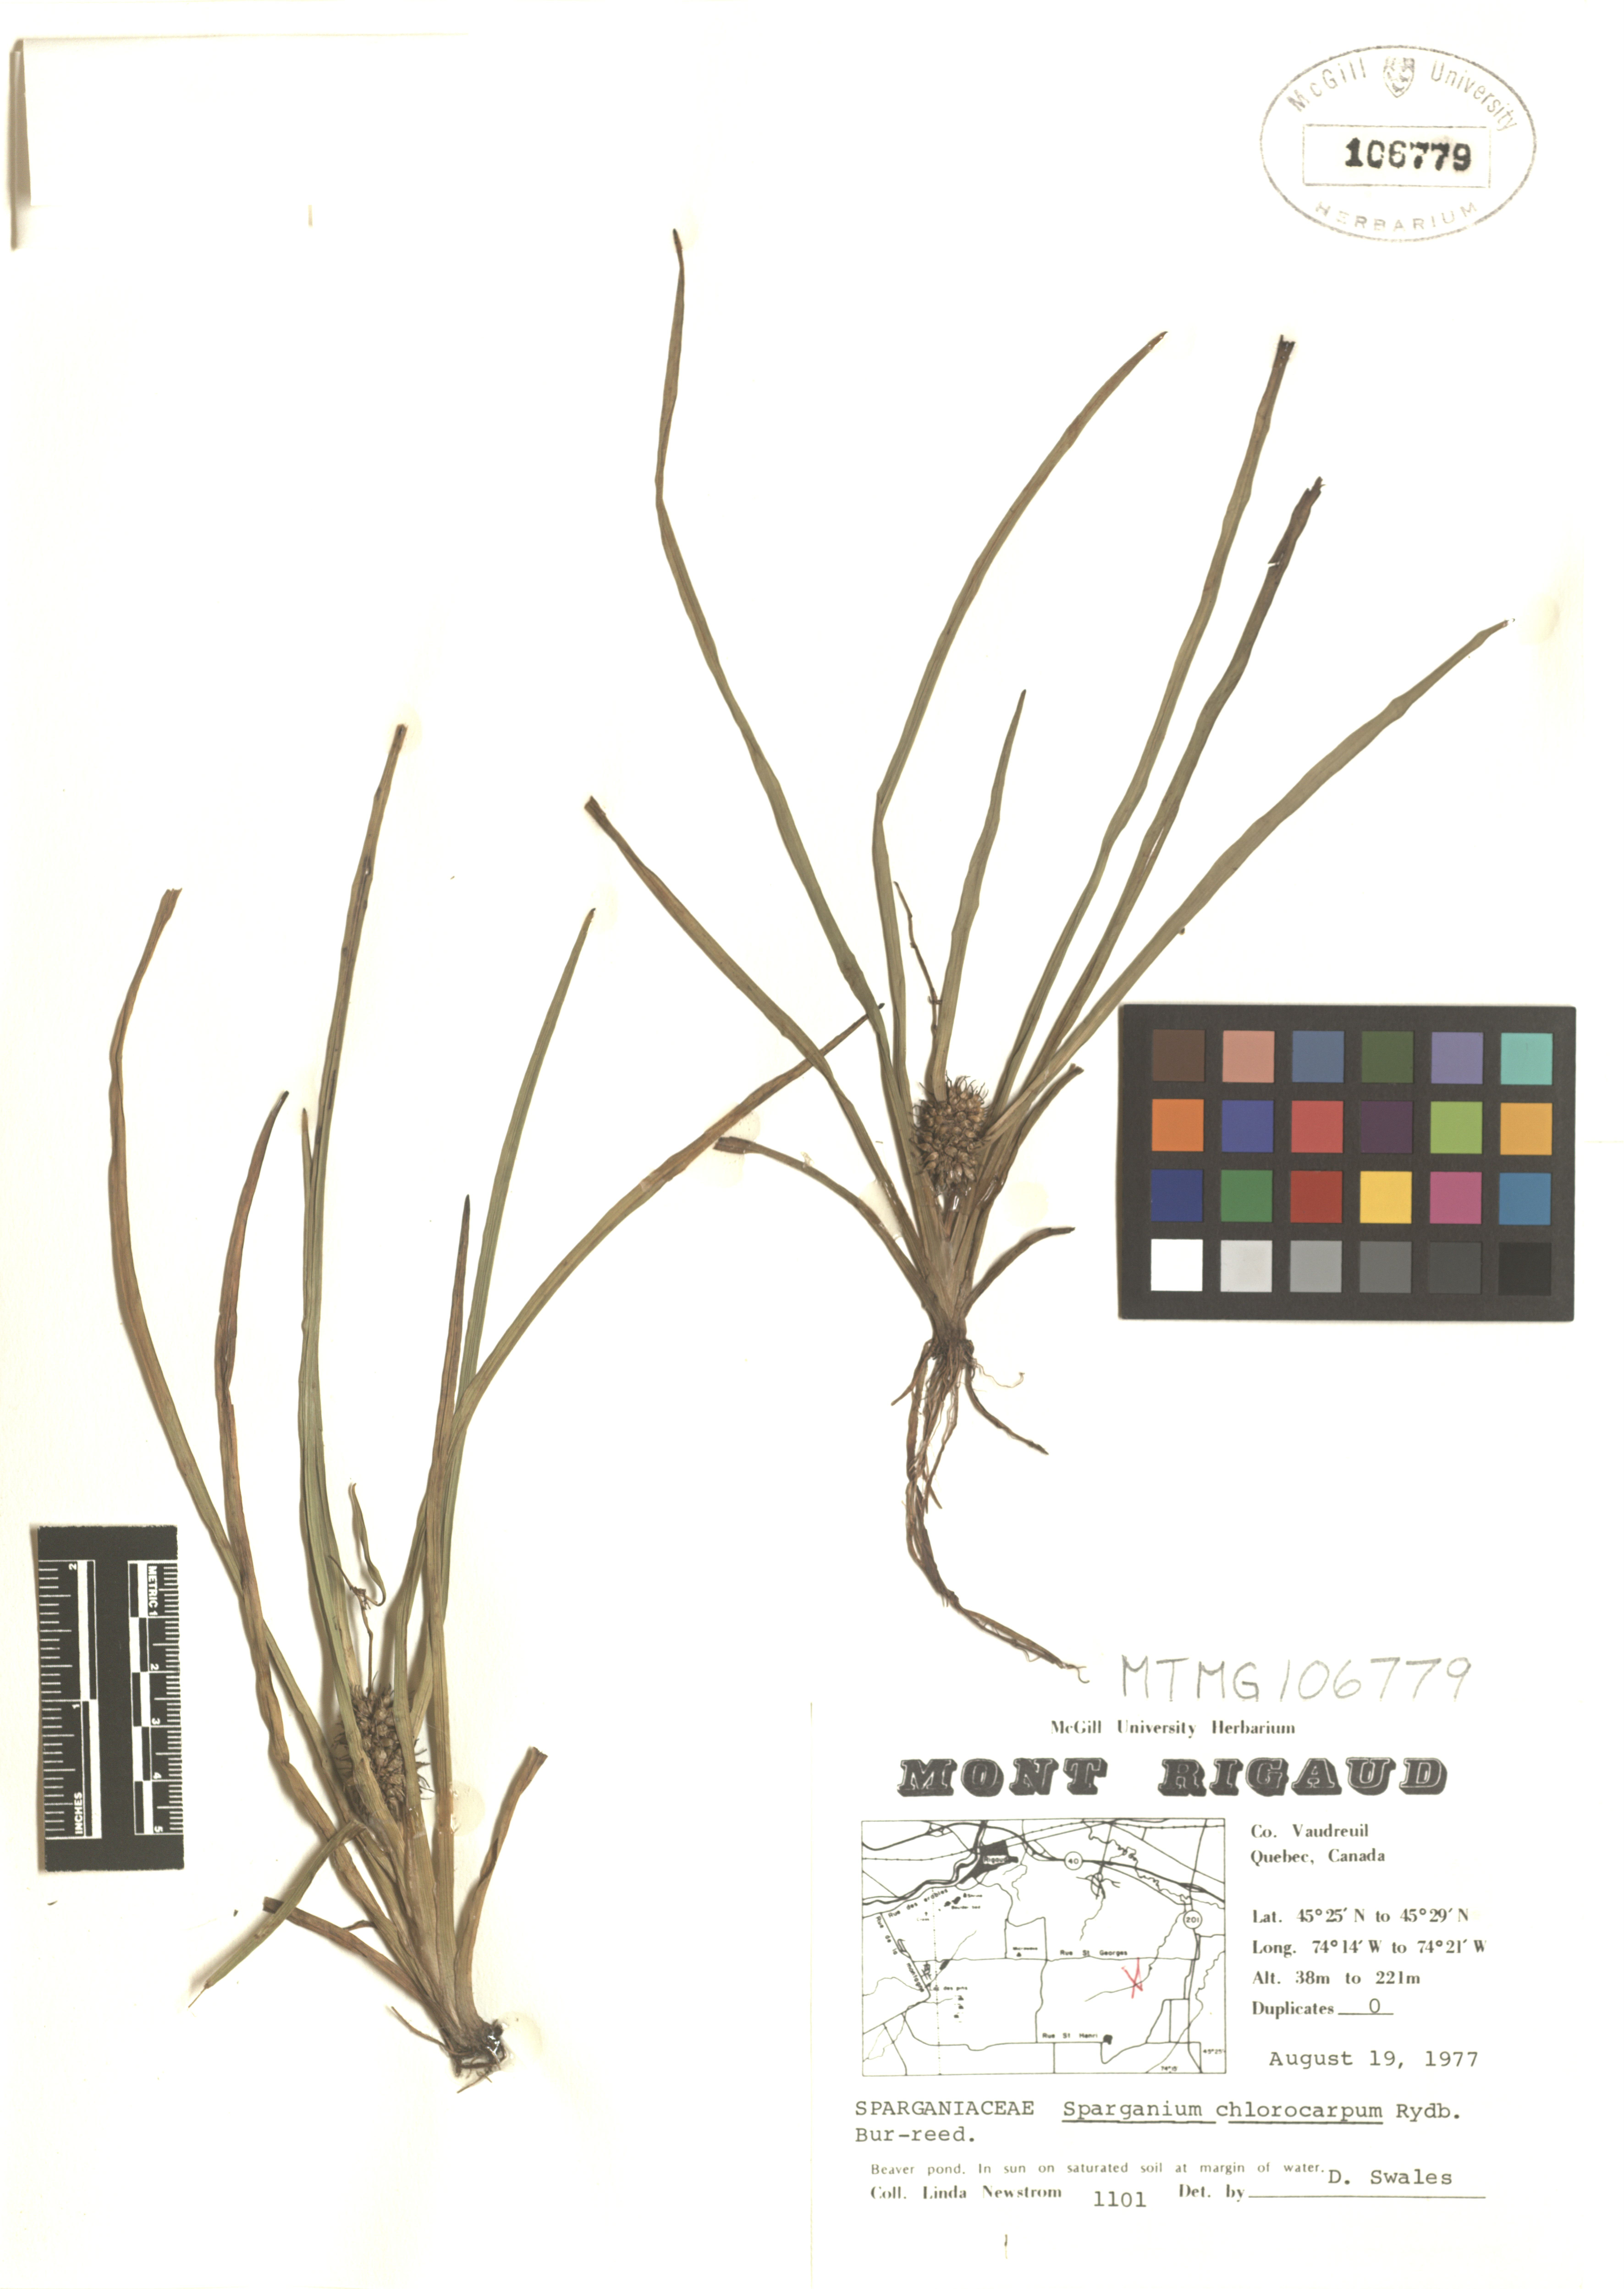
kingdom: Plantae
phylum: Tracheophyta
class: Liliopsida
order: Poales
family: Typhaceae
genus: Sparganium
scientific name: Sparganium emersum
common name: Unbranched bur-reed
